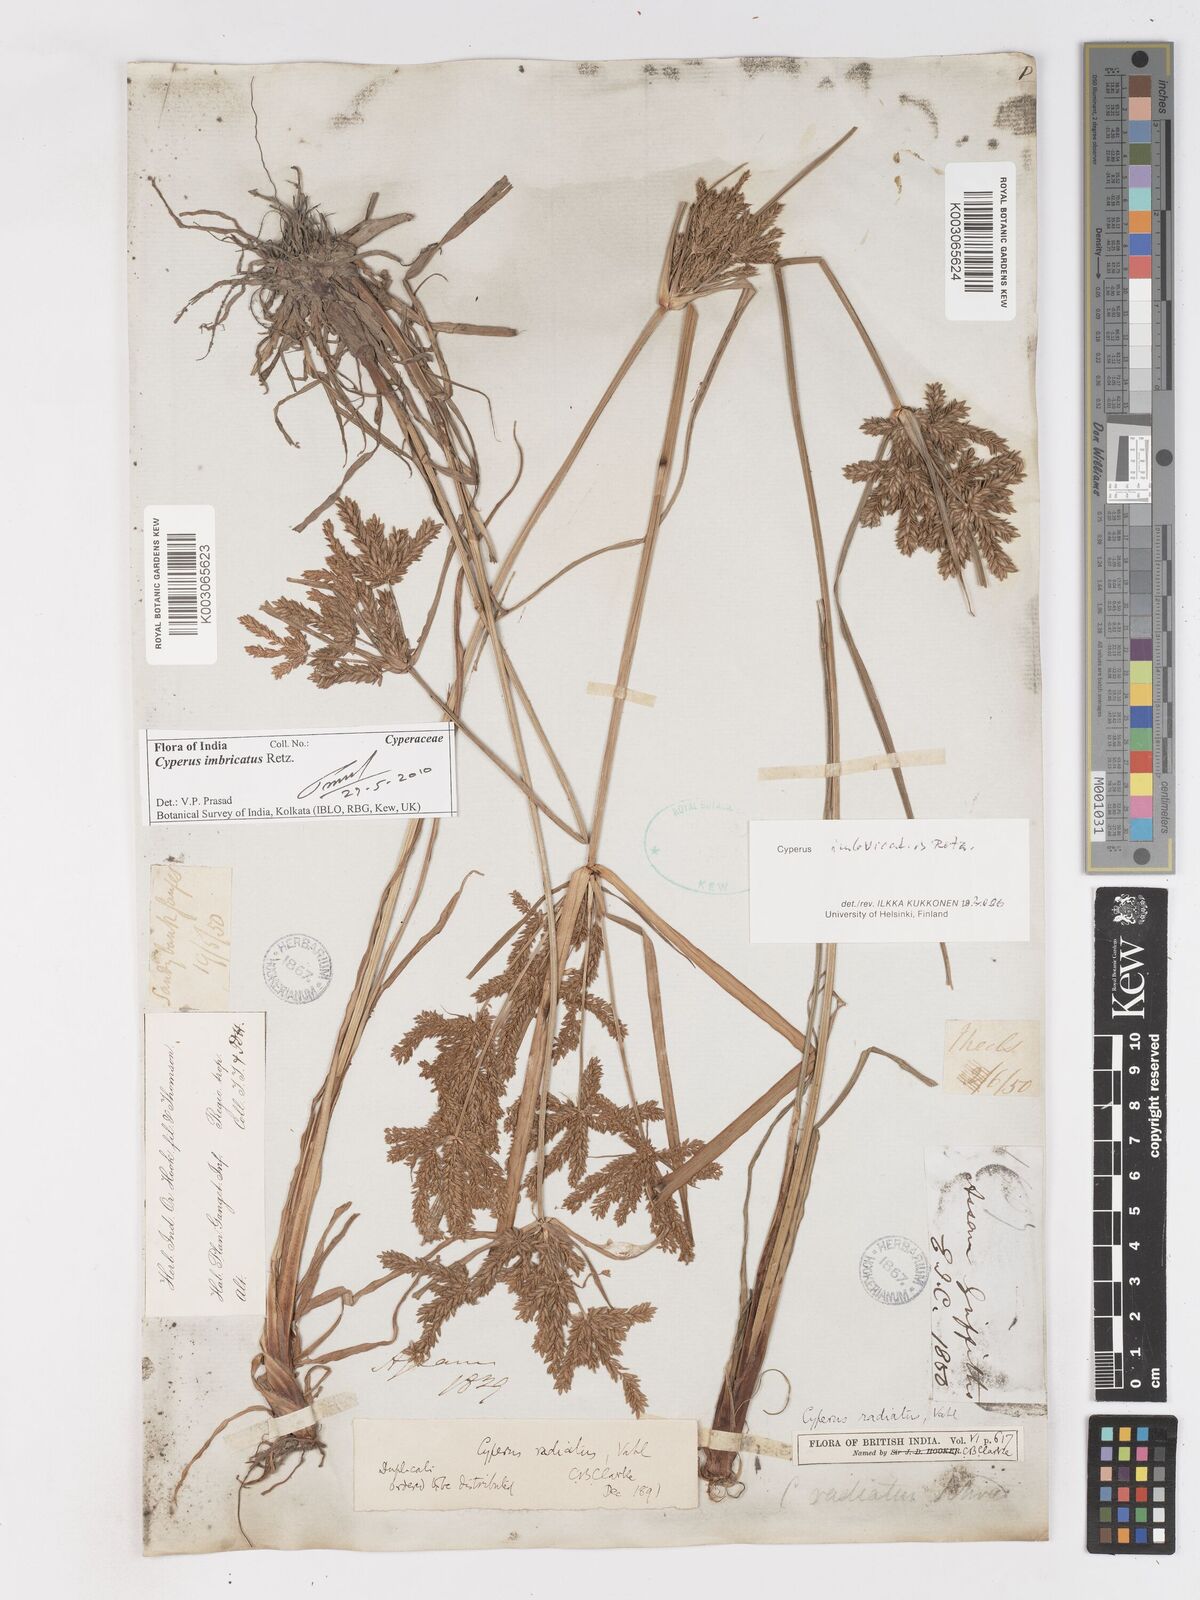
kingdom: Plantae
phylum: Tracheophyta
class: Liliopsida
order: Poales
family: Cyperaceae
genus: Cyperus
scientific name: Cyperus imbricatus
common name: Shingle flatsedge
